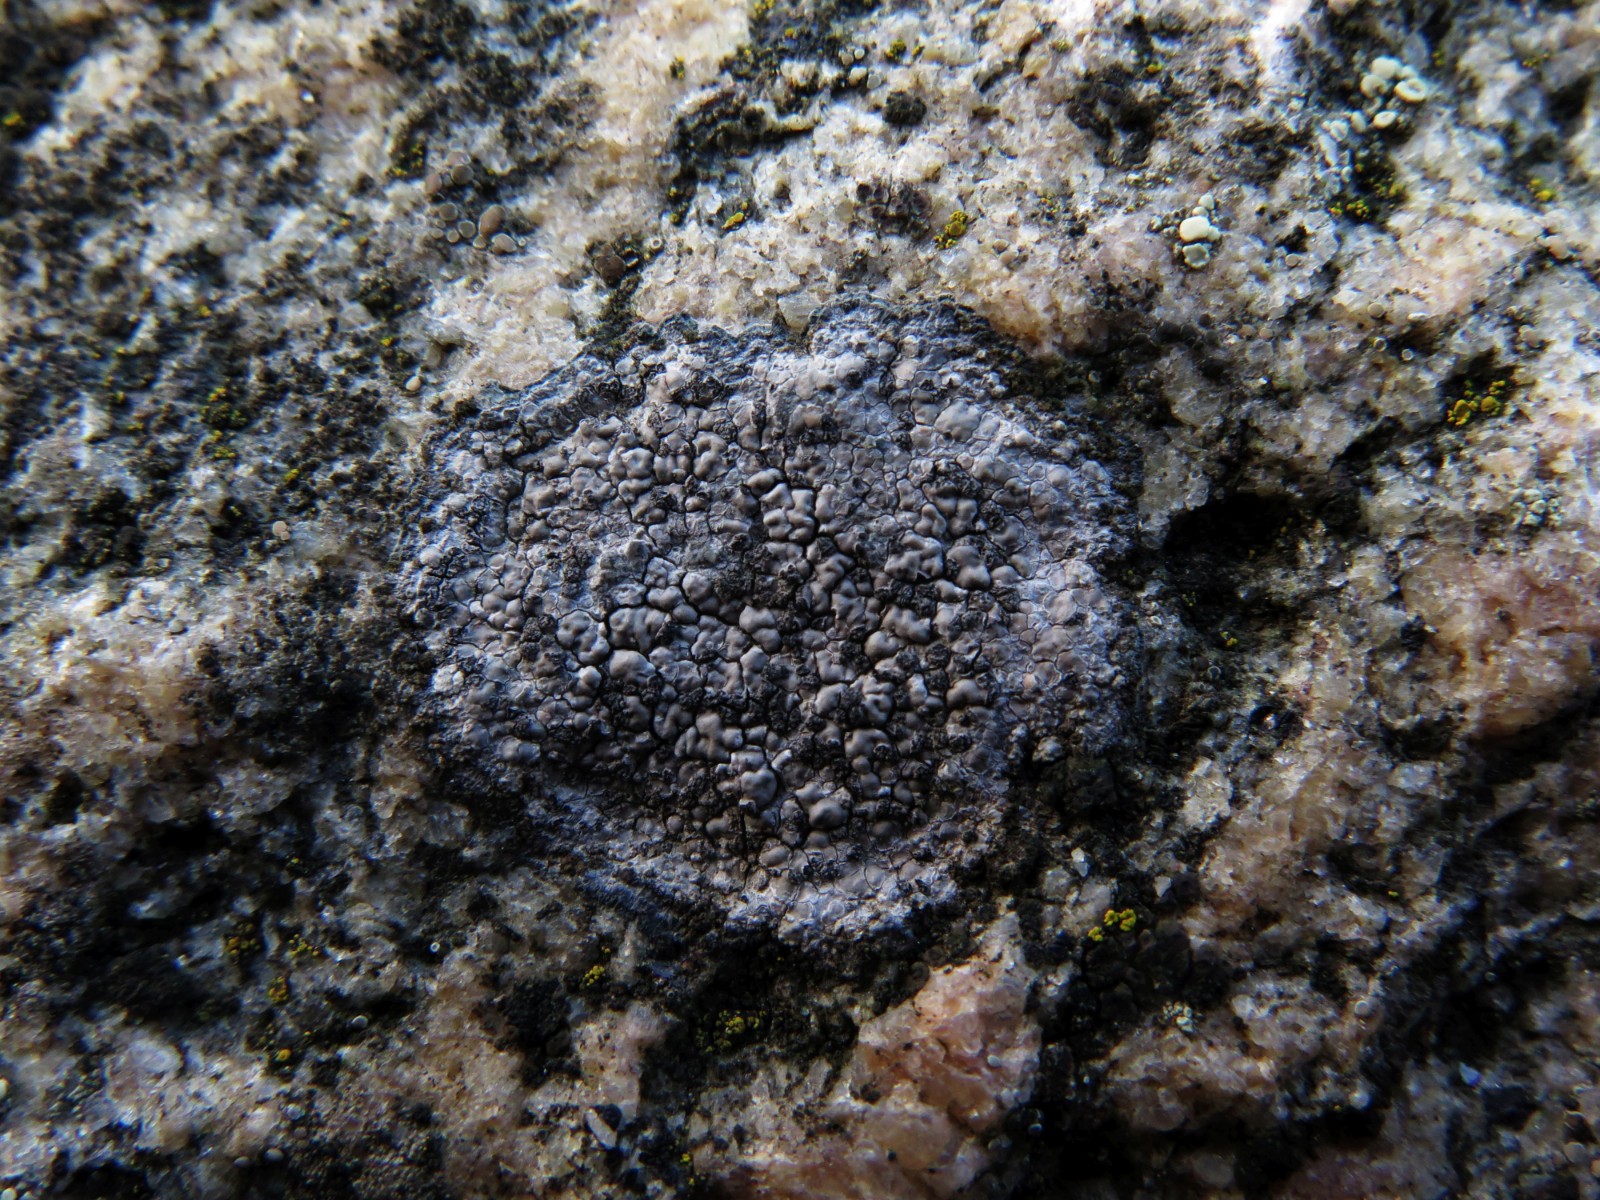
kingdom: Fungi
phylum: Ascomycota
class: Lecanoromycetes
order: Pertusariales
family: Megasporaceae
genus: Circinaria
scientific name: Circinaria caesiocinerea
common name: fuglestens-hulskivelav
